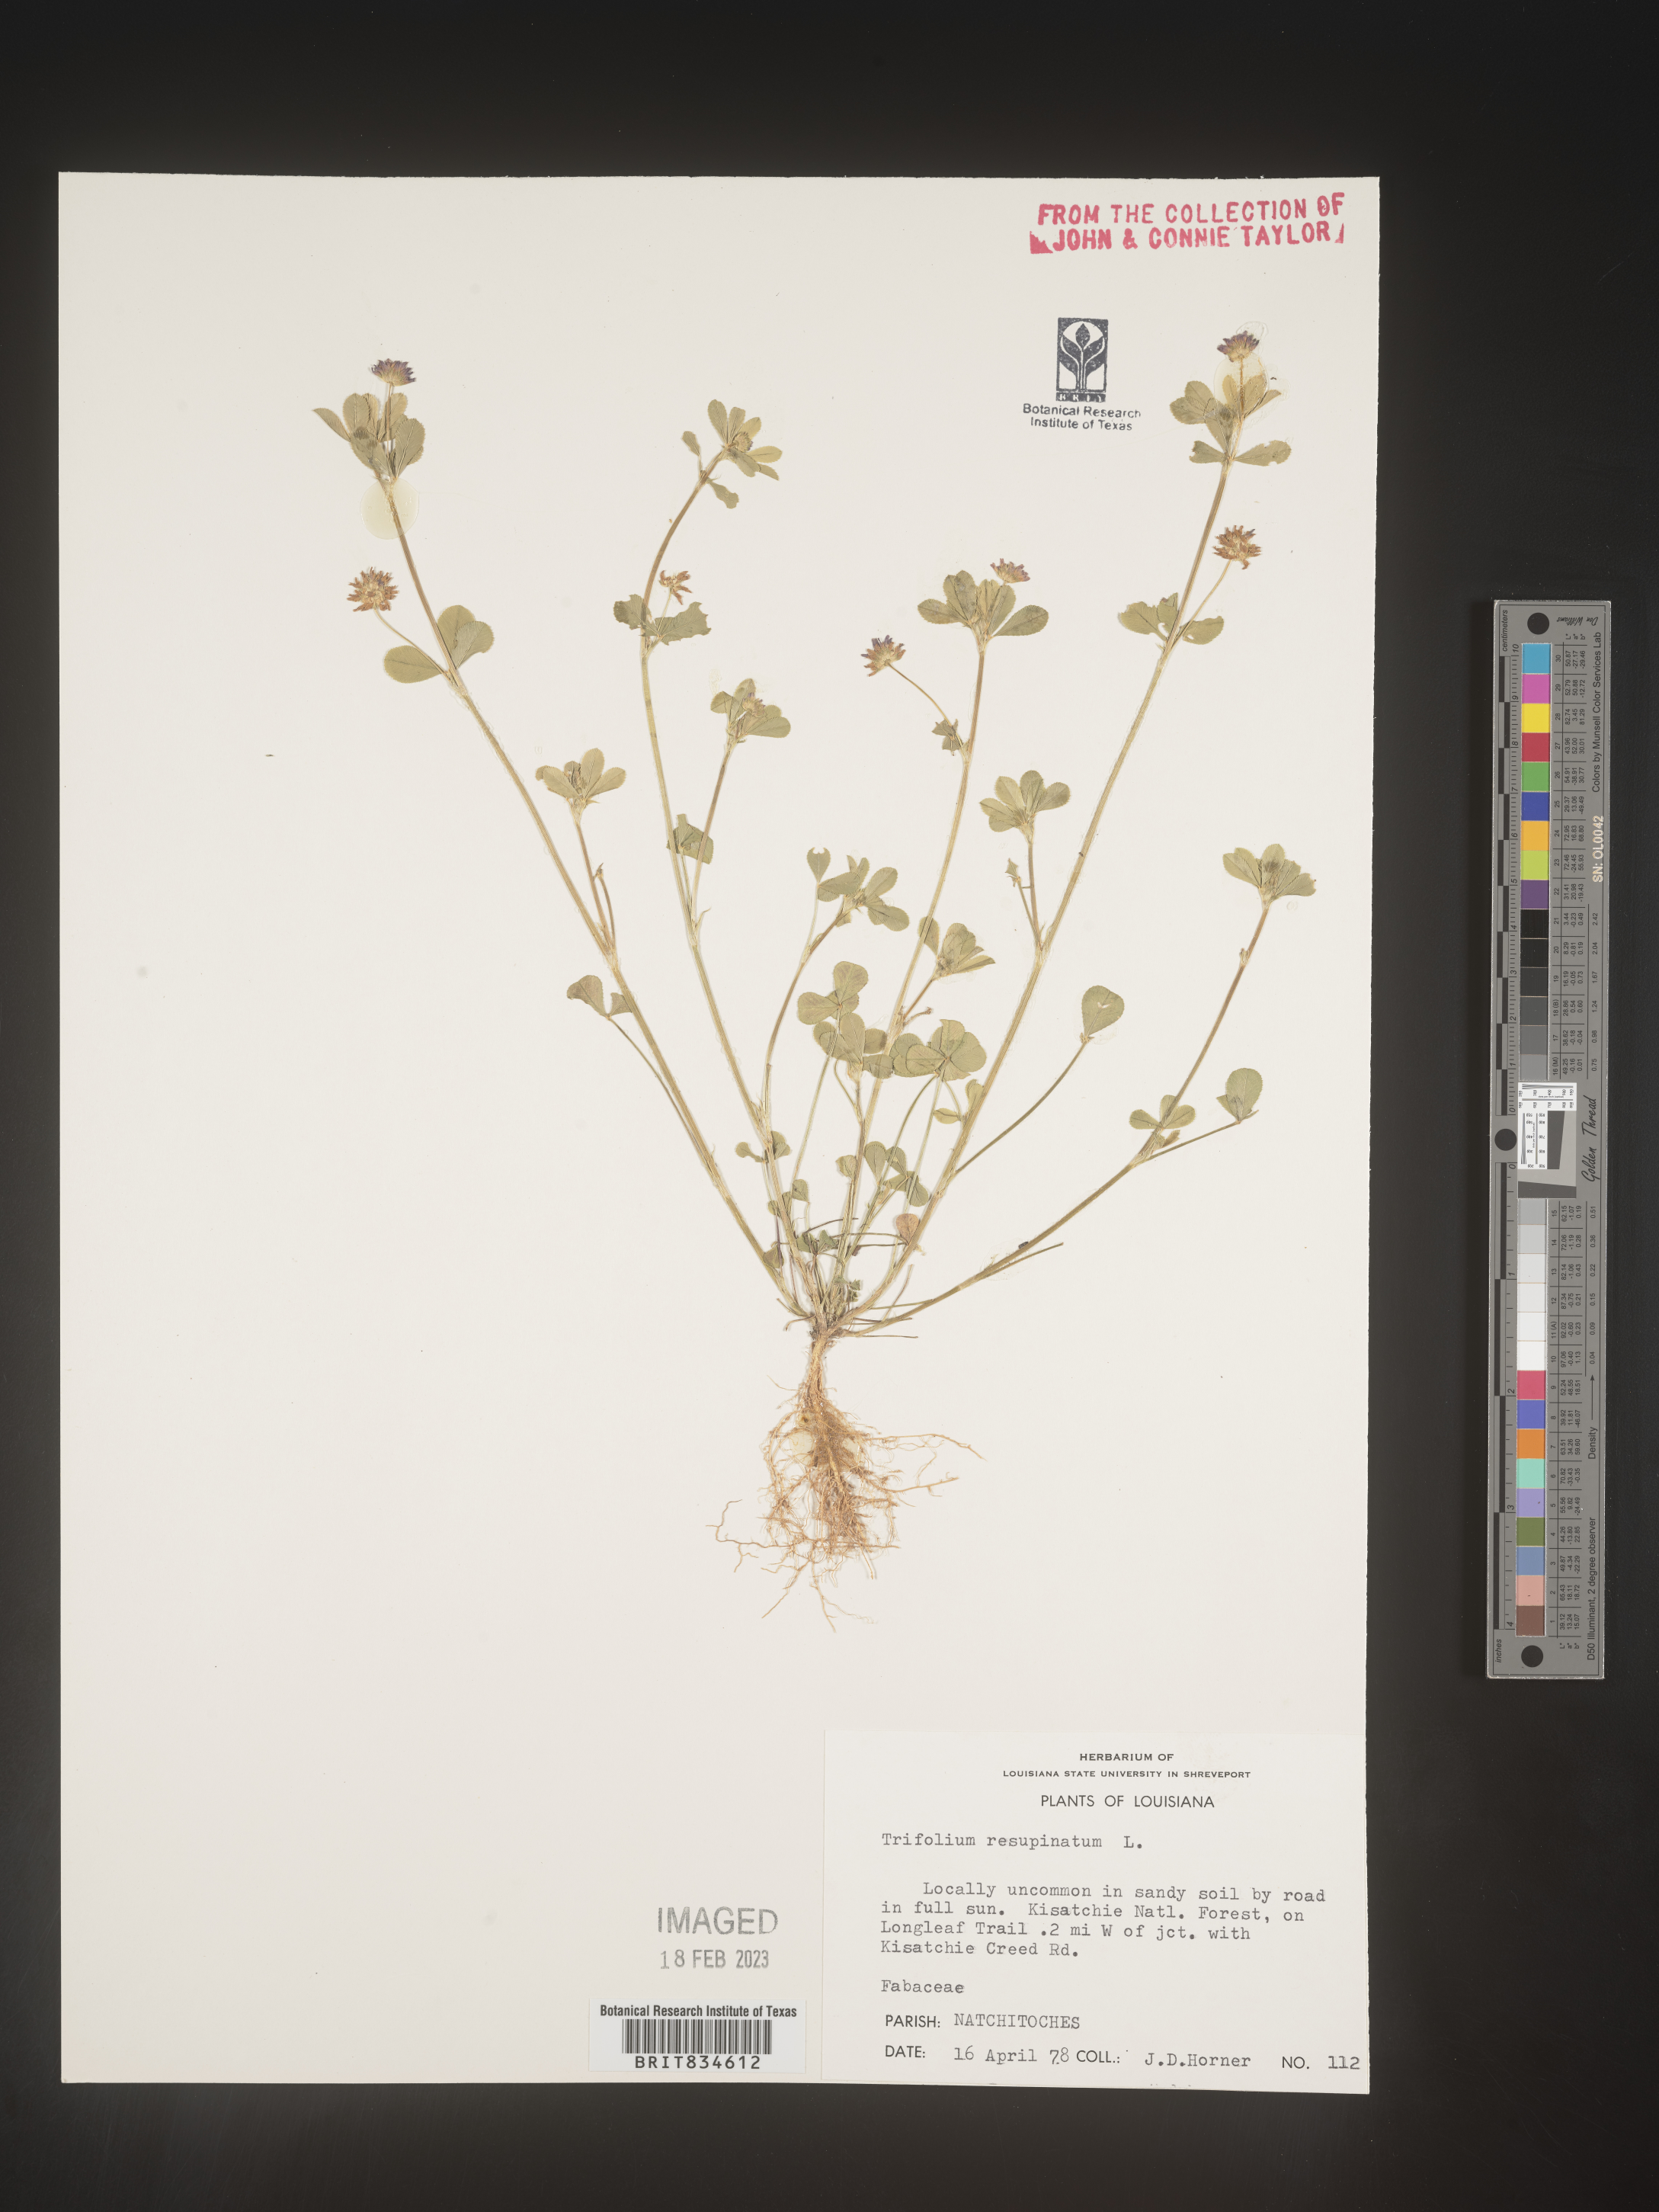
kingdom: Plantae
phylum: Tracheophyta
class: Magnoliopsida
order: Fabales
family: Fabaceae
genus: Trifolium
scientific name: Trifolium resupinatum
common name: Reversed clover
